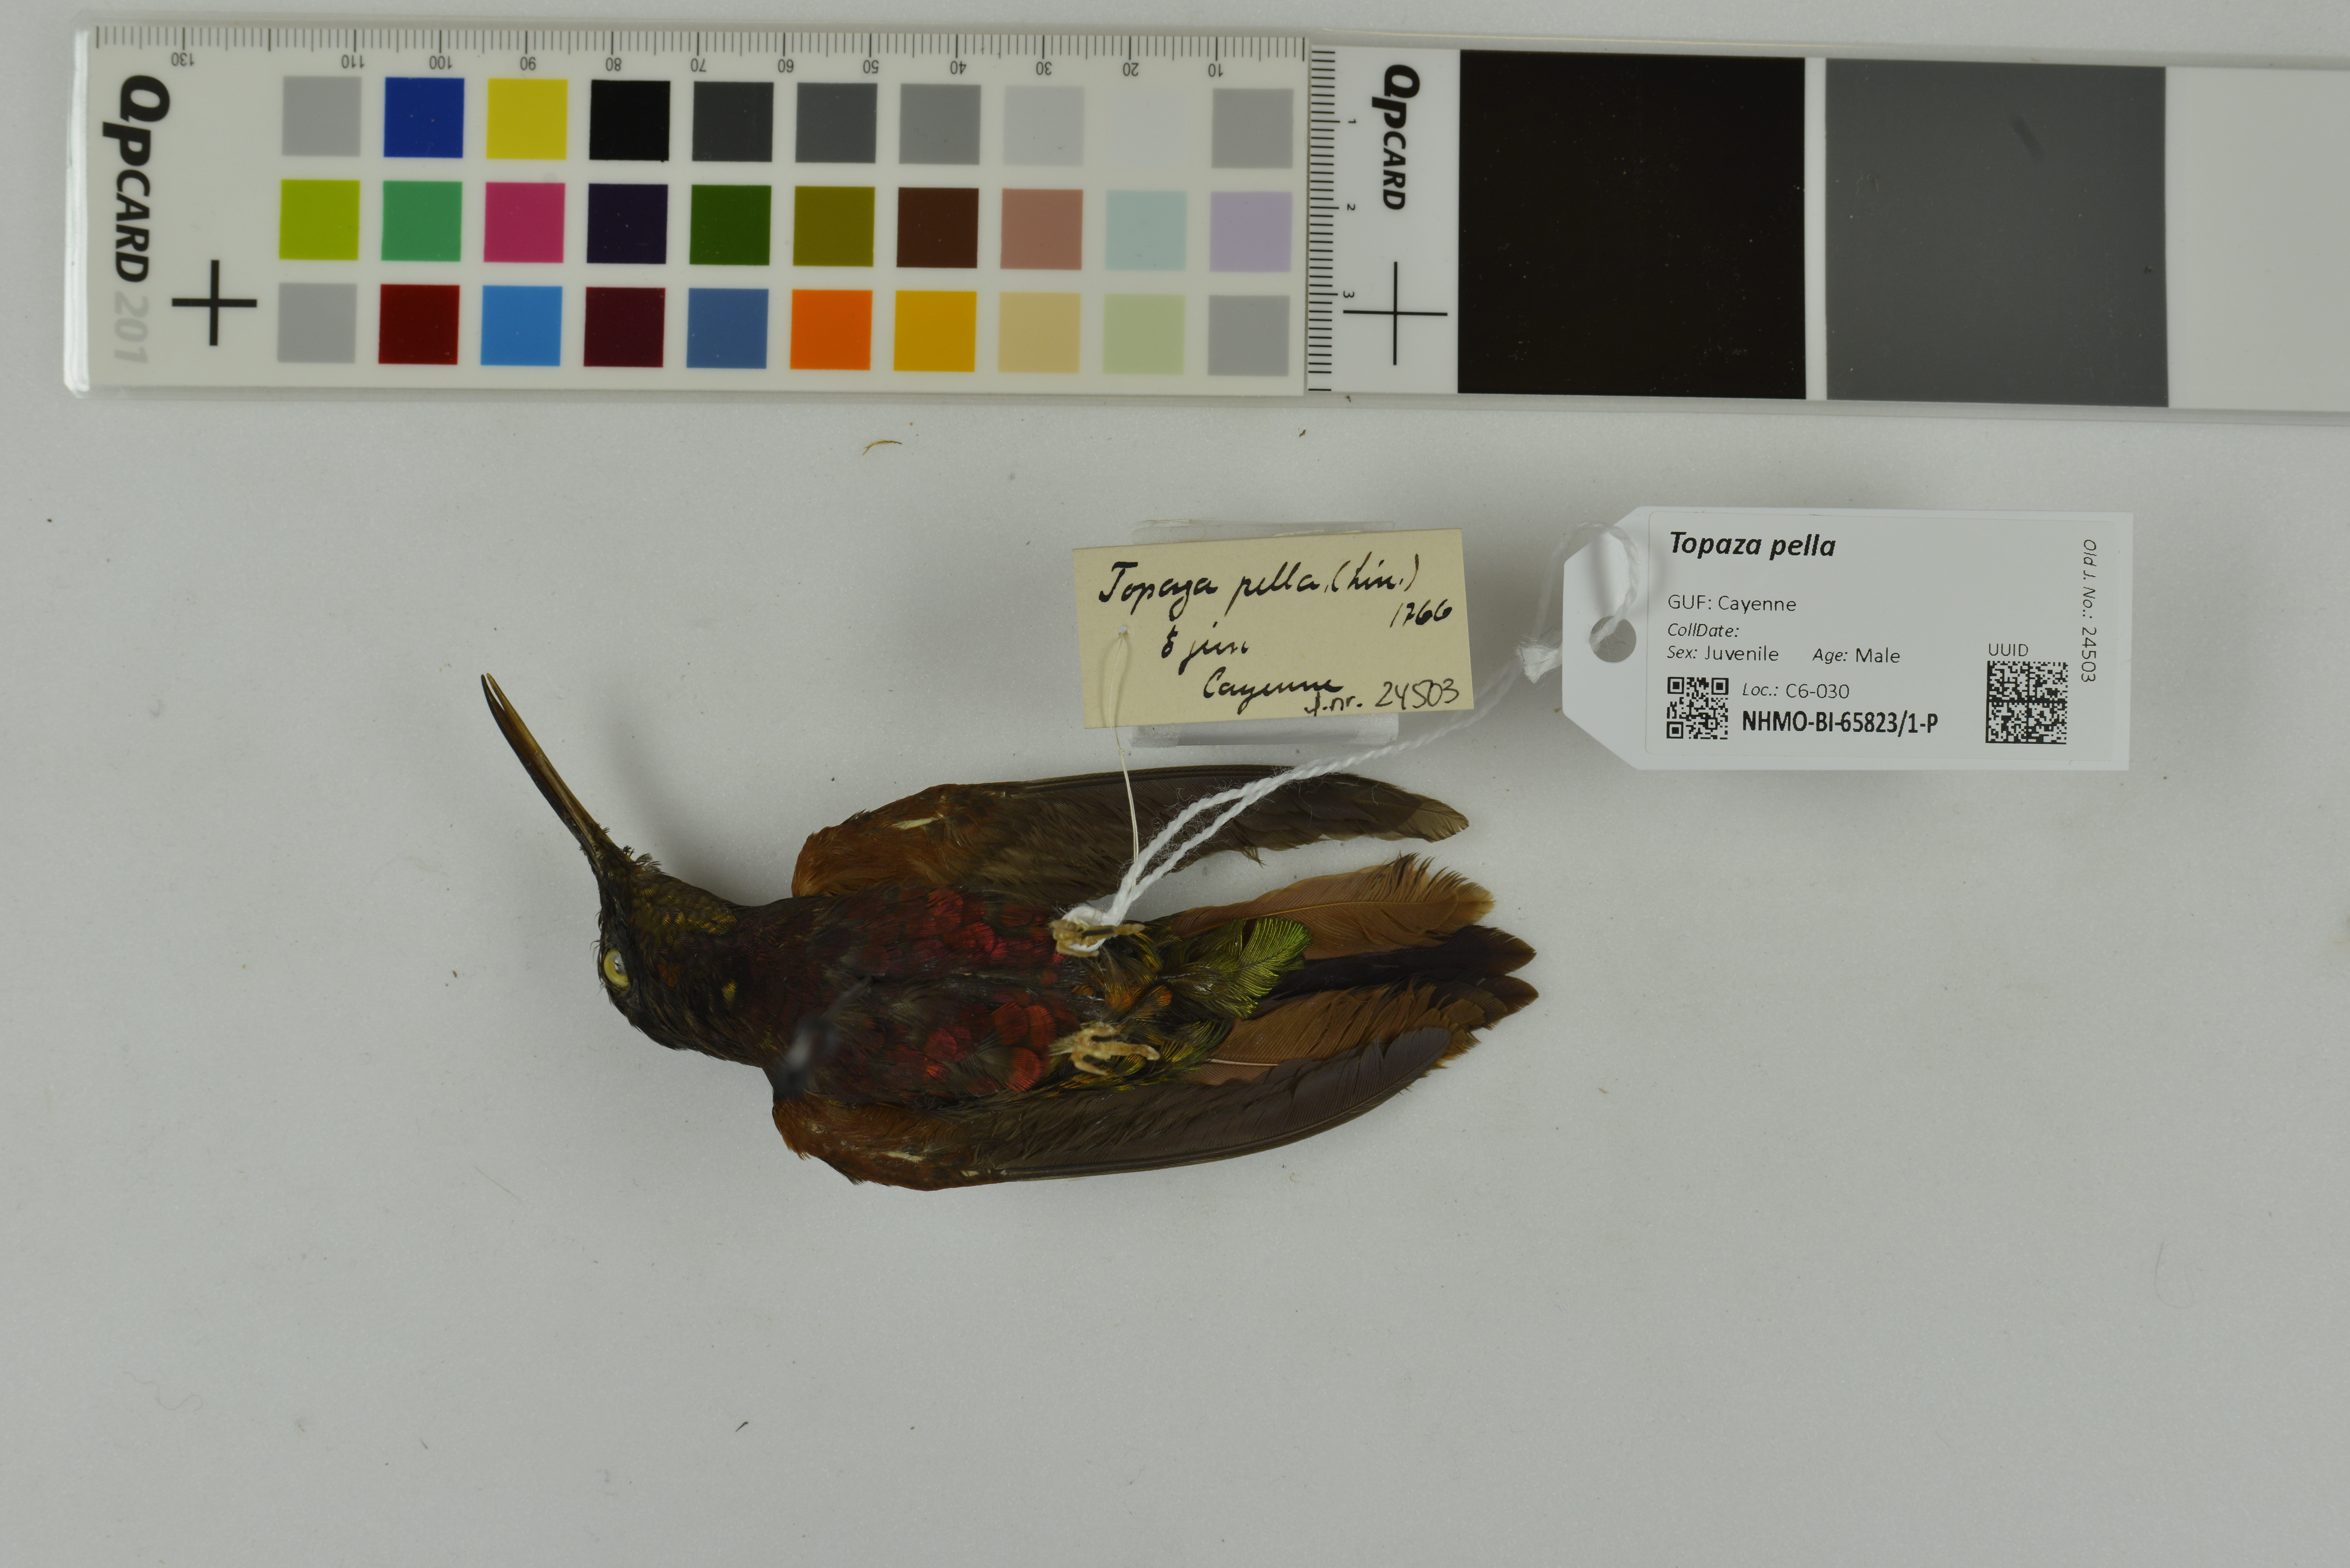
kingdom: Animalia
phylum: Chordata
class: Aves
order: Apodiformes
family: Trochilidae
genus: Topaza
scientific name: Topaza pella
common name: Crimson topaz
